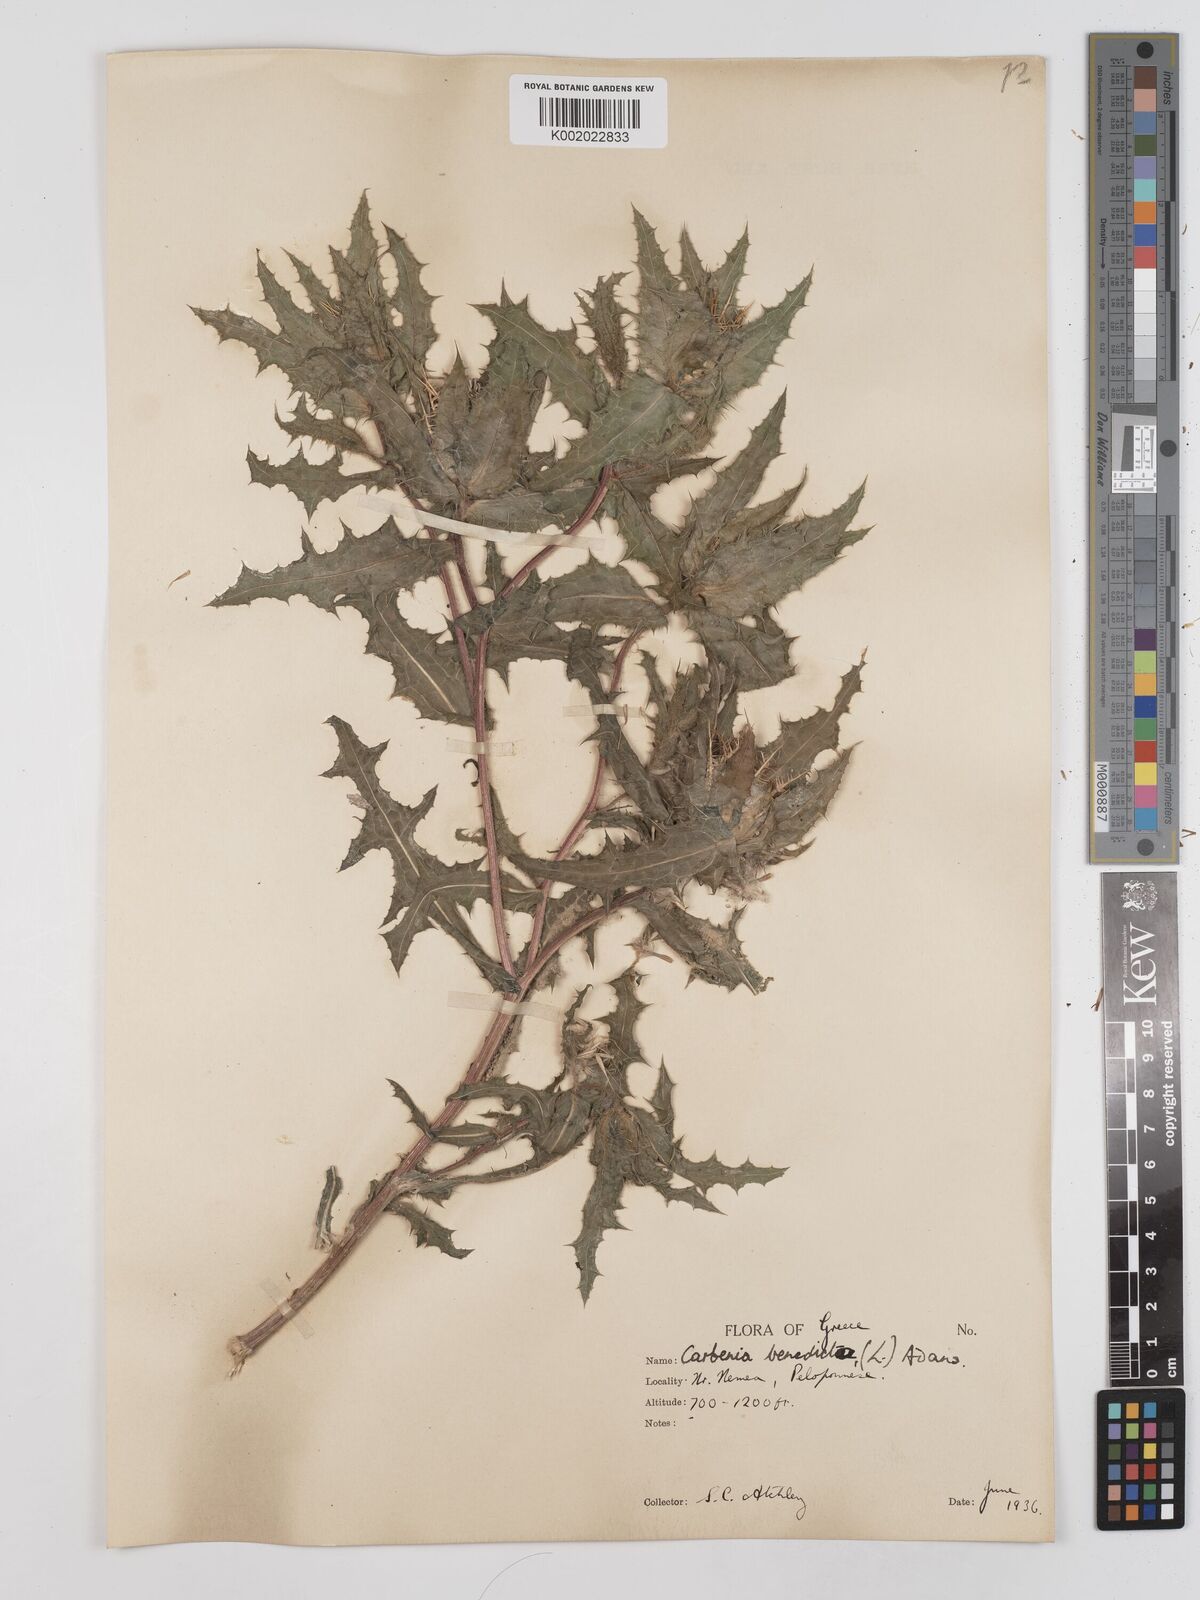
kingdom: Plantae
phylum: Tracheophyta
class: Magnoliopsida
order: Asterales
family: Asteraceae
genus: Centaurea
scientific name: Centaurea benedicta
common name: Blessed thistle
